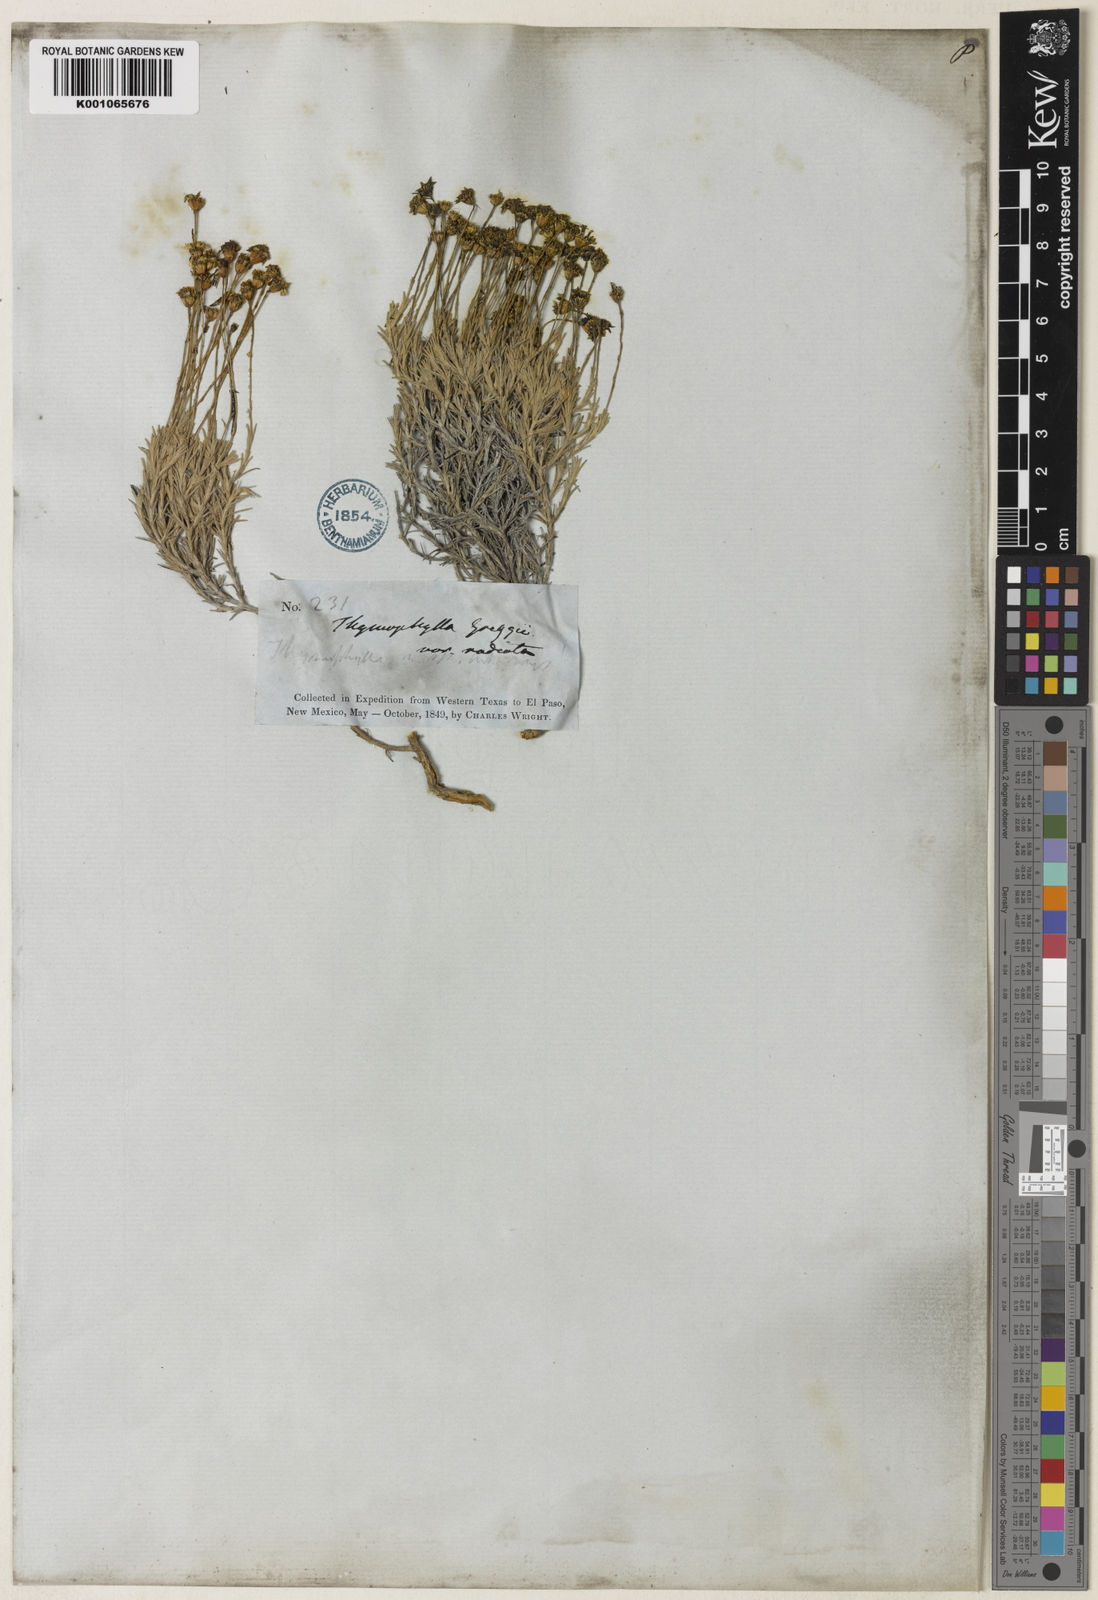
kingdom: Plantae
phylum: Tracheophyta
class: Magnoliopsida
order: Asterales
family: Asteraceae
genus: Thymophylla
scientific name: Thymophylla setifolia
